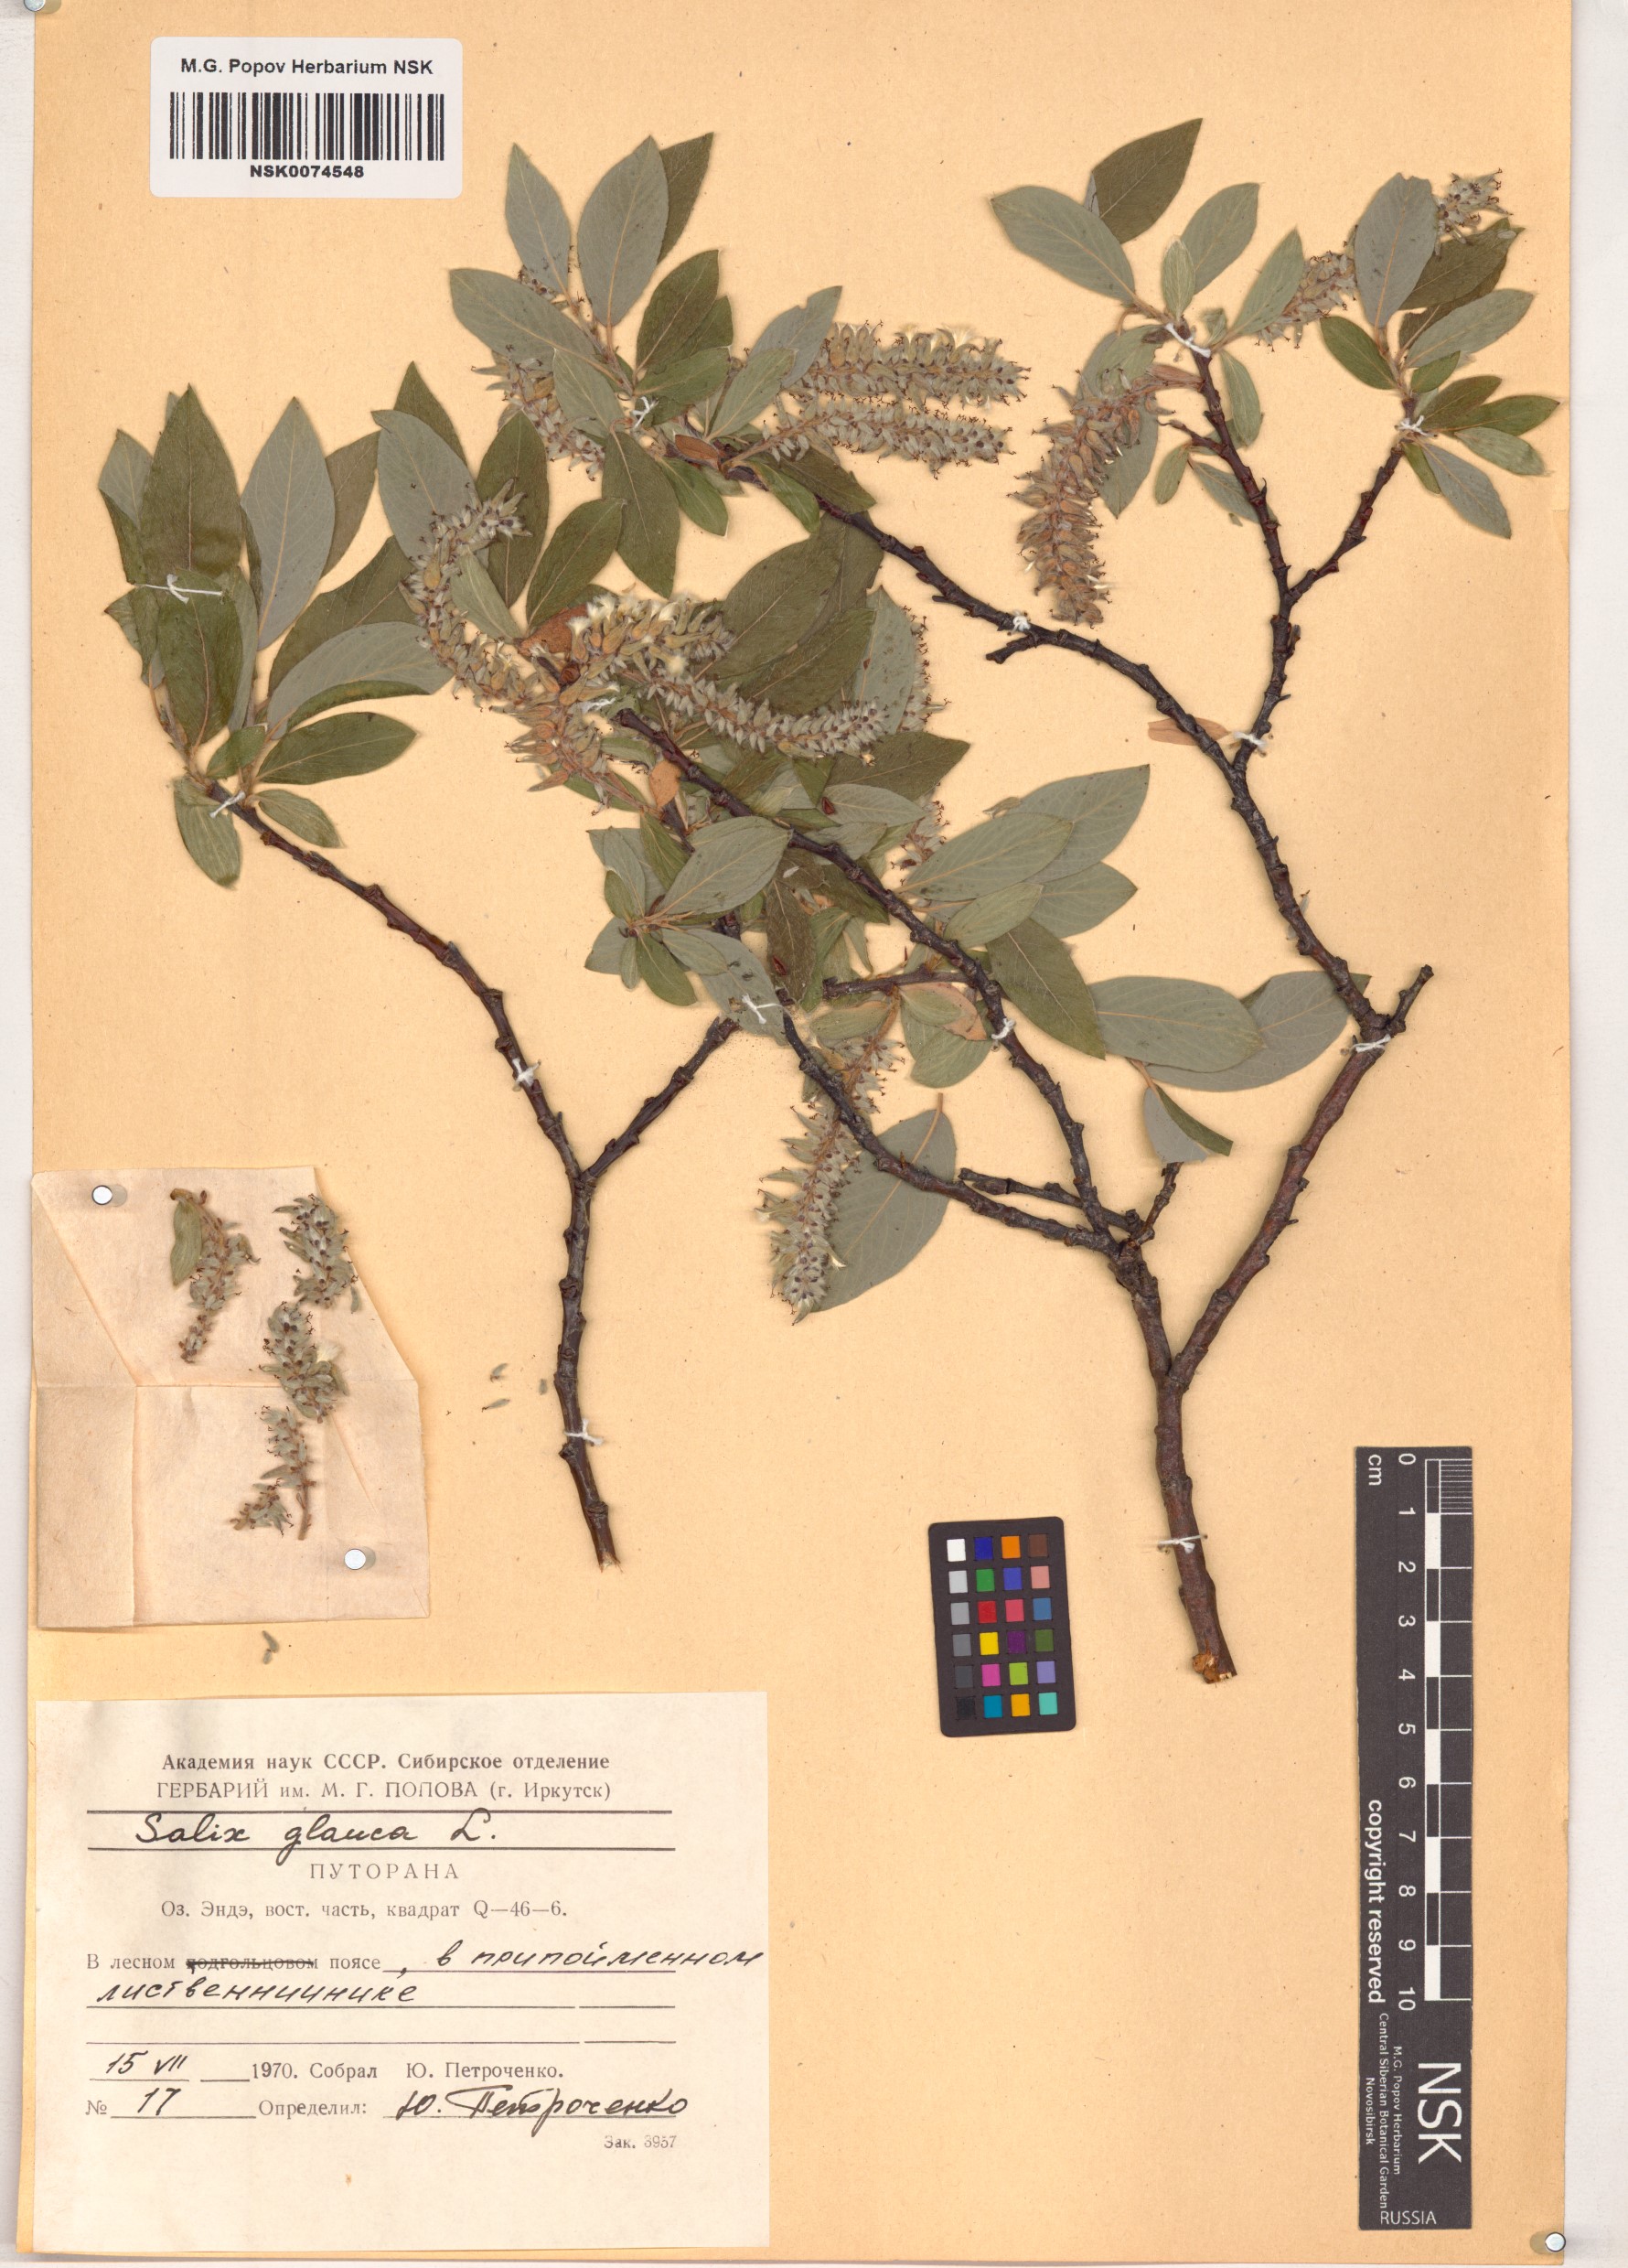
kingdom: Plantae
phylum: Tracheophyta
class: Magnoliopsida
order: Malpighiales
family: Salicaceae
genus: Salix
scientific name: Salix glauca
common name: Glaucous willow
